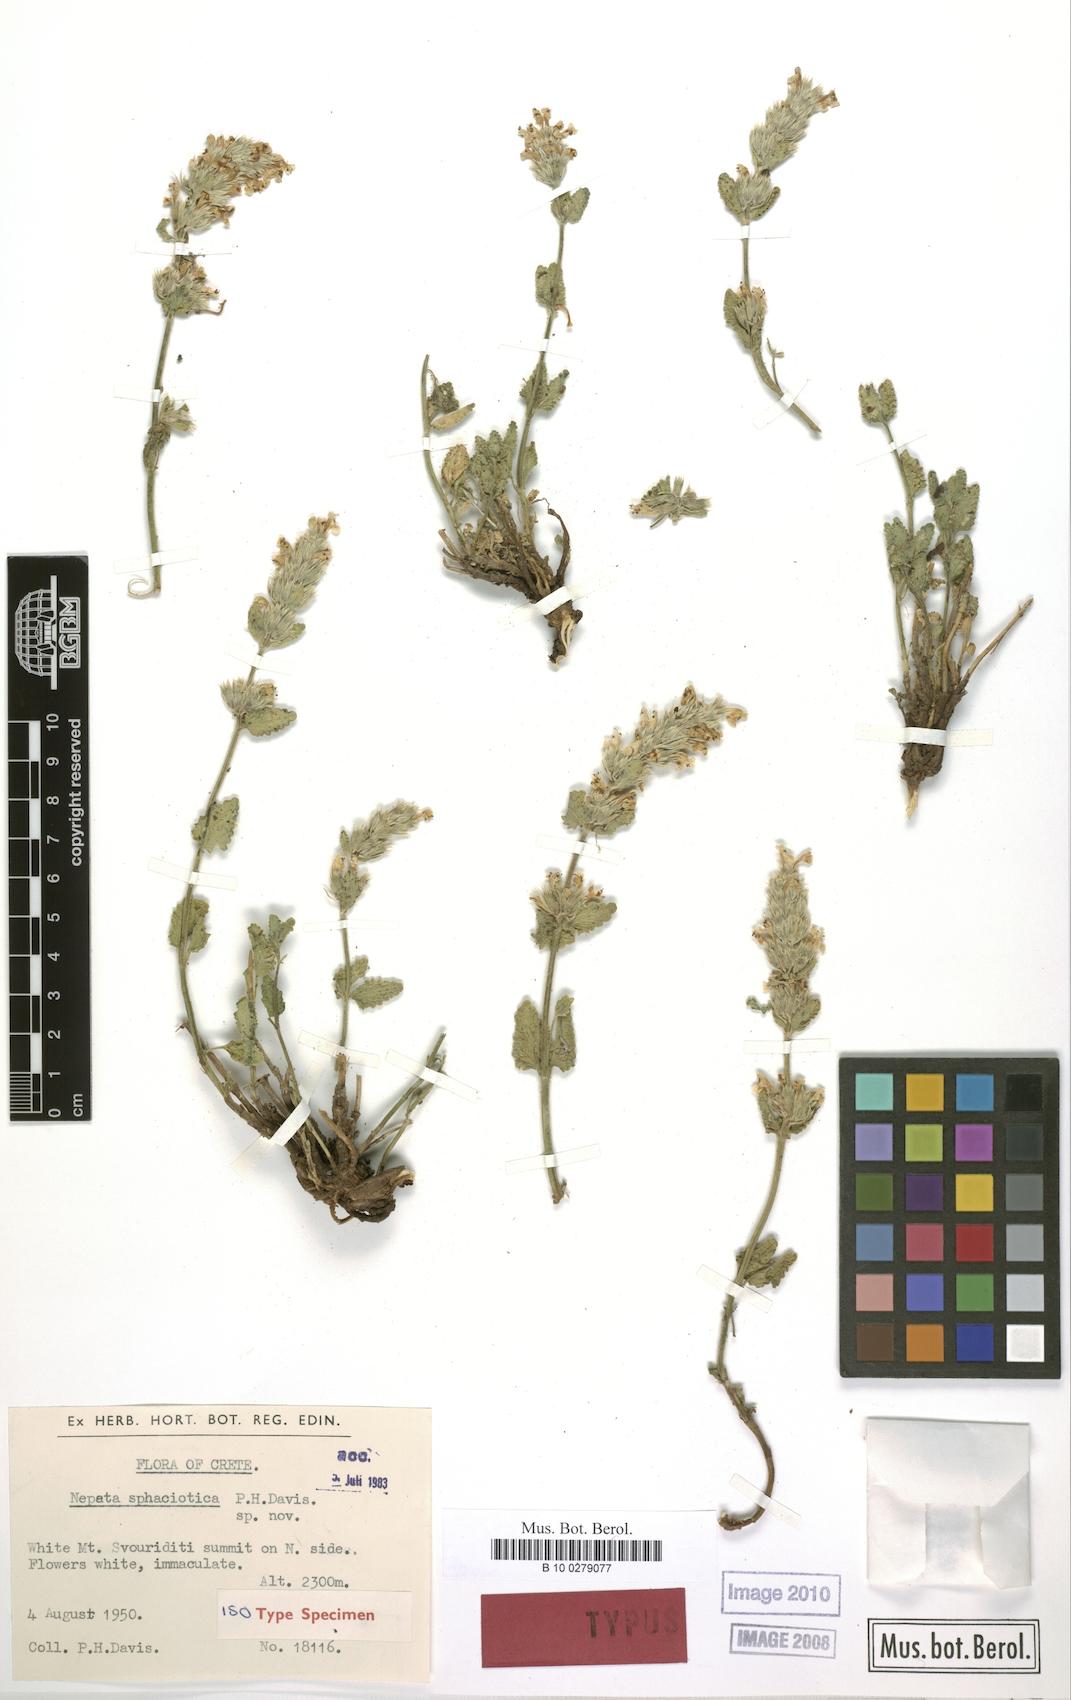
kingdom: Plantae
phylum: Tracheophyta
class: Magnoliopsida
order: Lamiales
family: Lamiaceae
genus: Nepeta
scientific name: Nepeta sphaciotica
